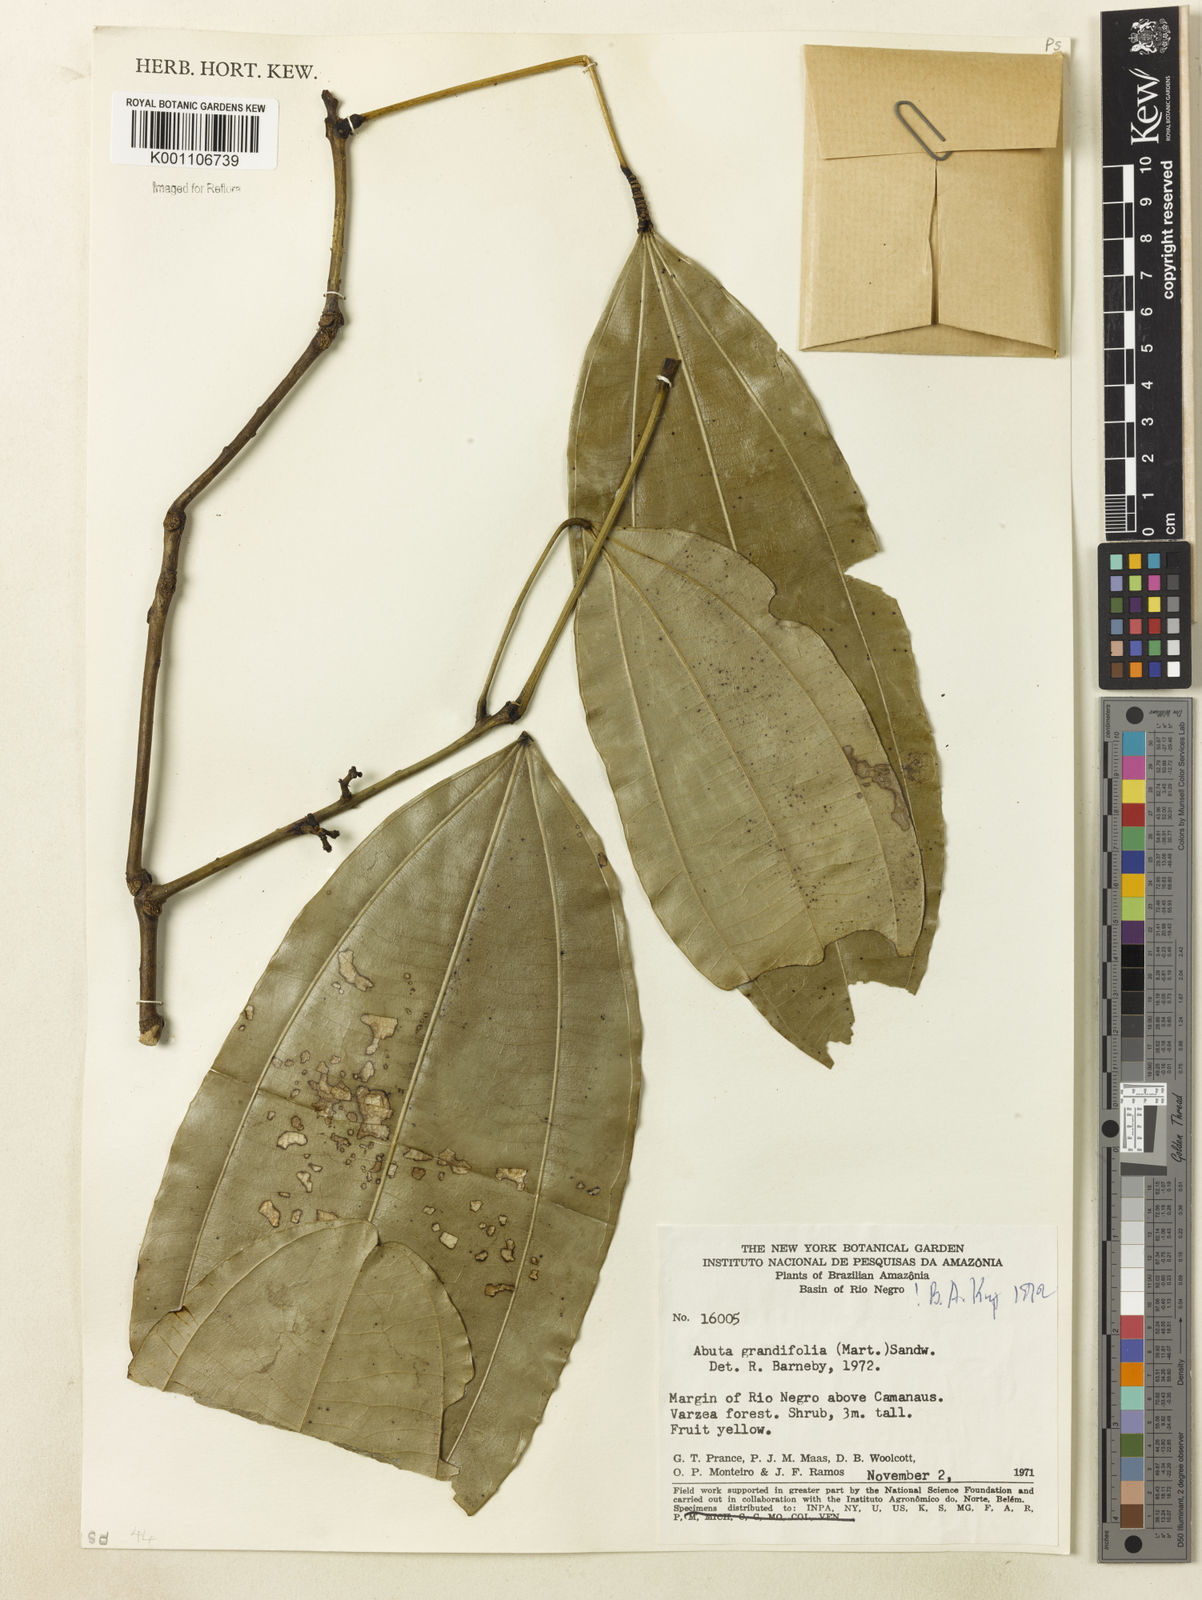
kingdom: Plantae
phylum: Tracheophyta
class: Magnoliopsida
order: Ranunculales
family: Menispermaceae
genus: Abuta
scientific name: Abuta grandifolia
